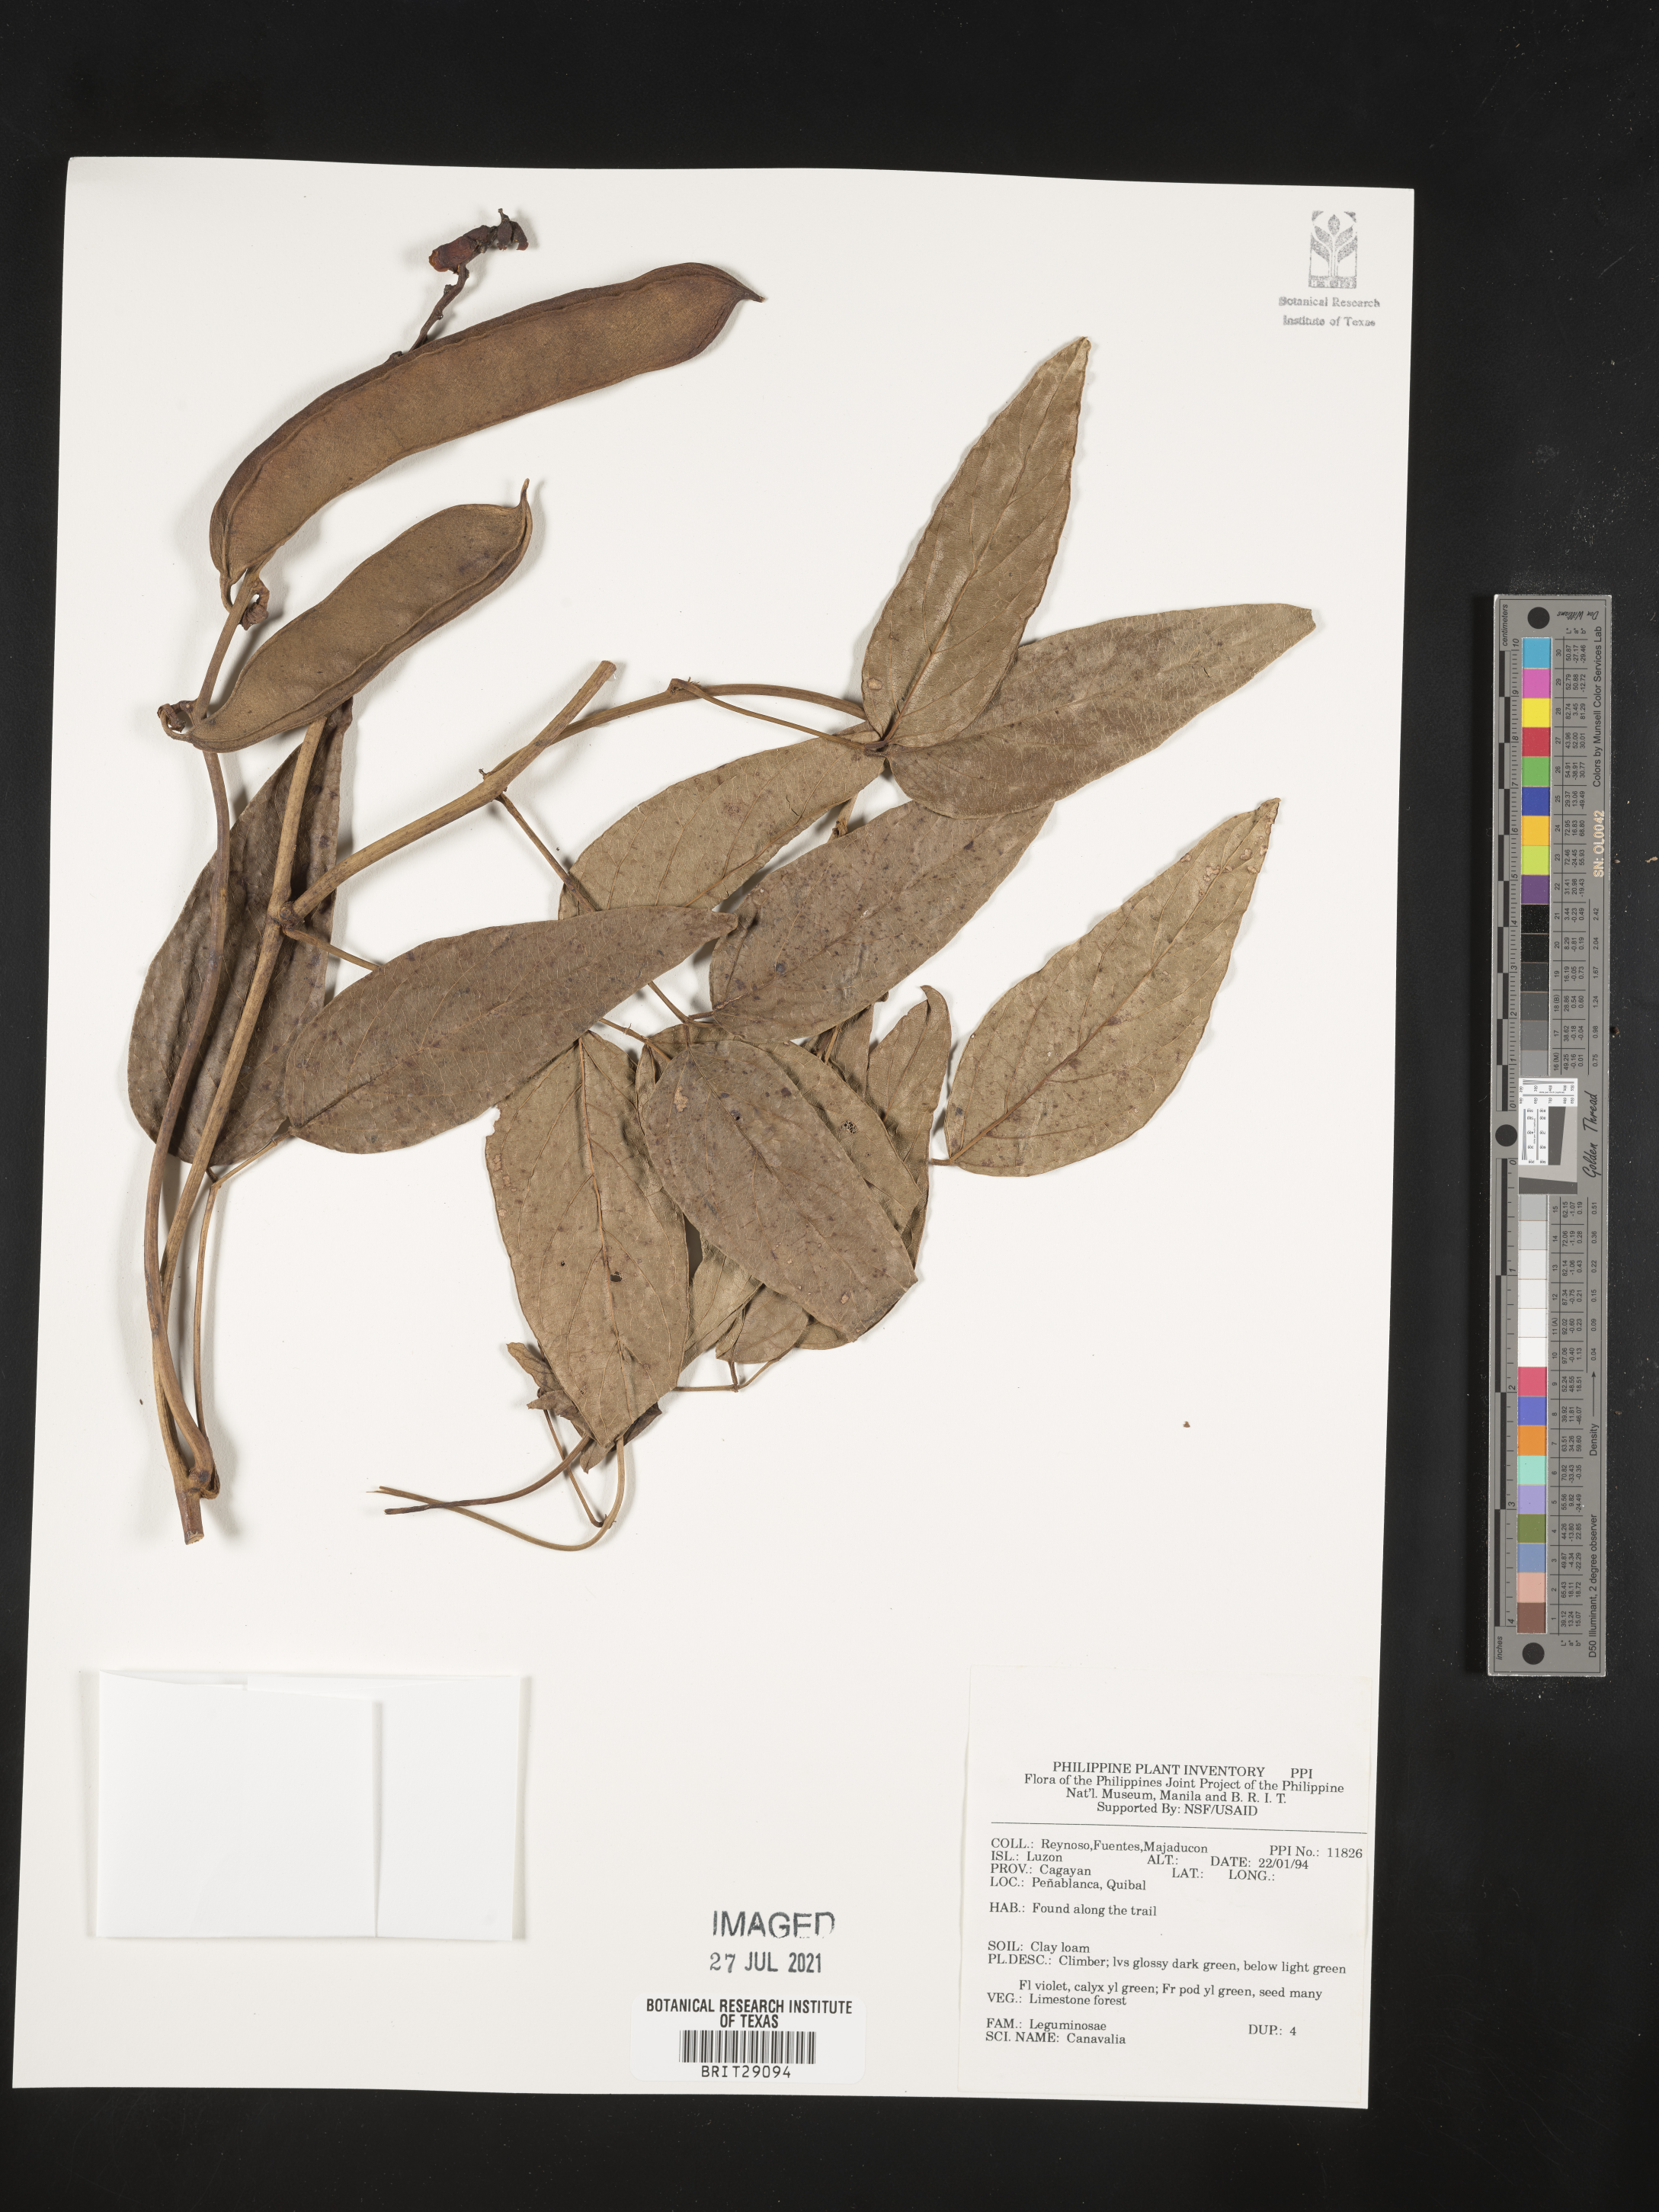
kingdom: Plantae
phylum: Tracheophyta
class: Magnoliopsida
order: Fabales
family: Fabaceae
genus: Canavalia
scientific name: Canavalia
